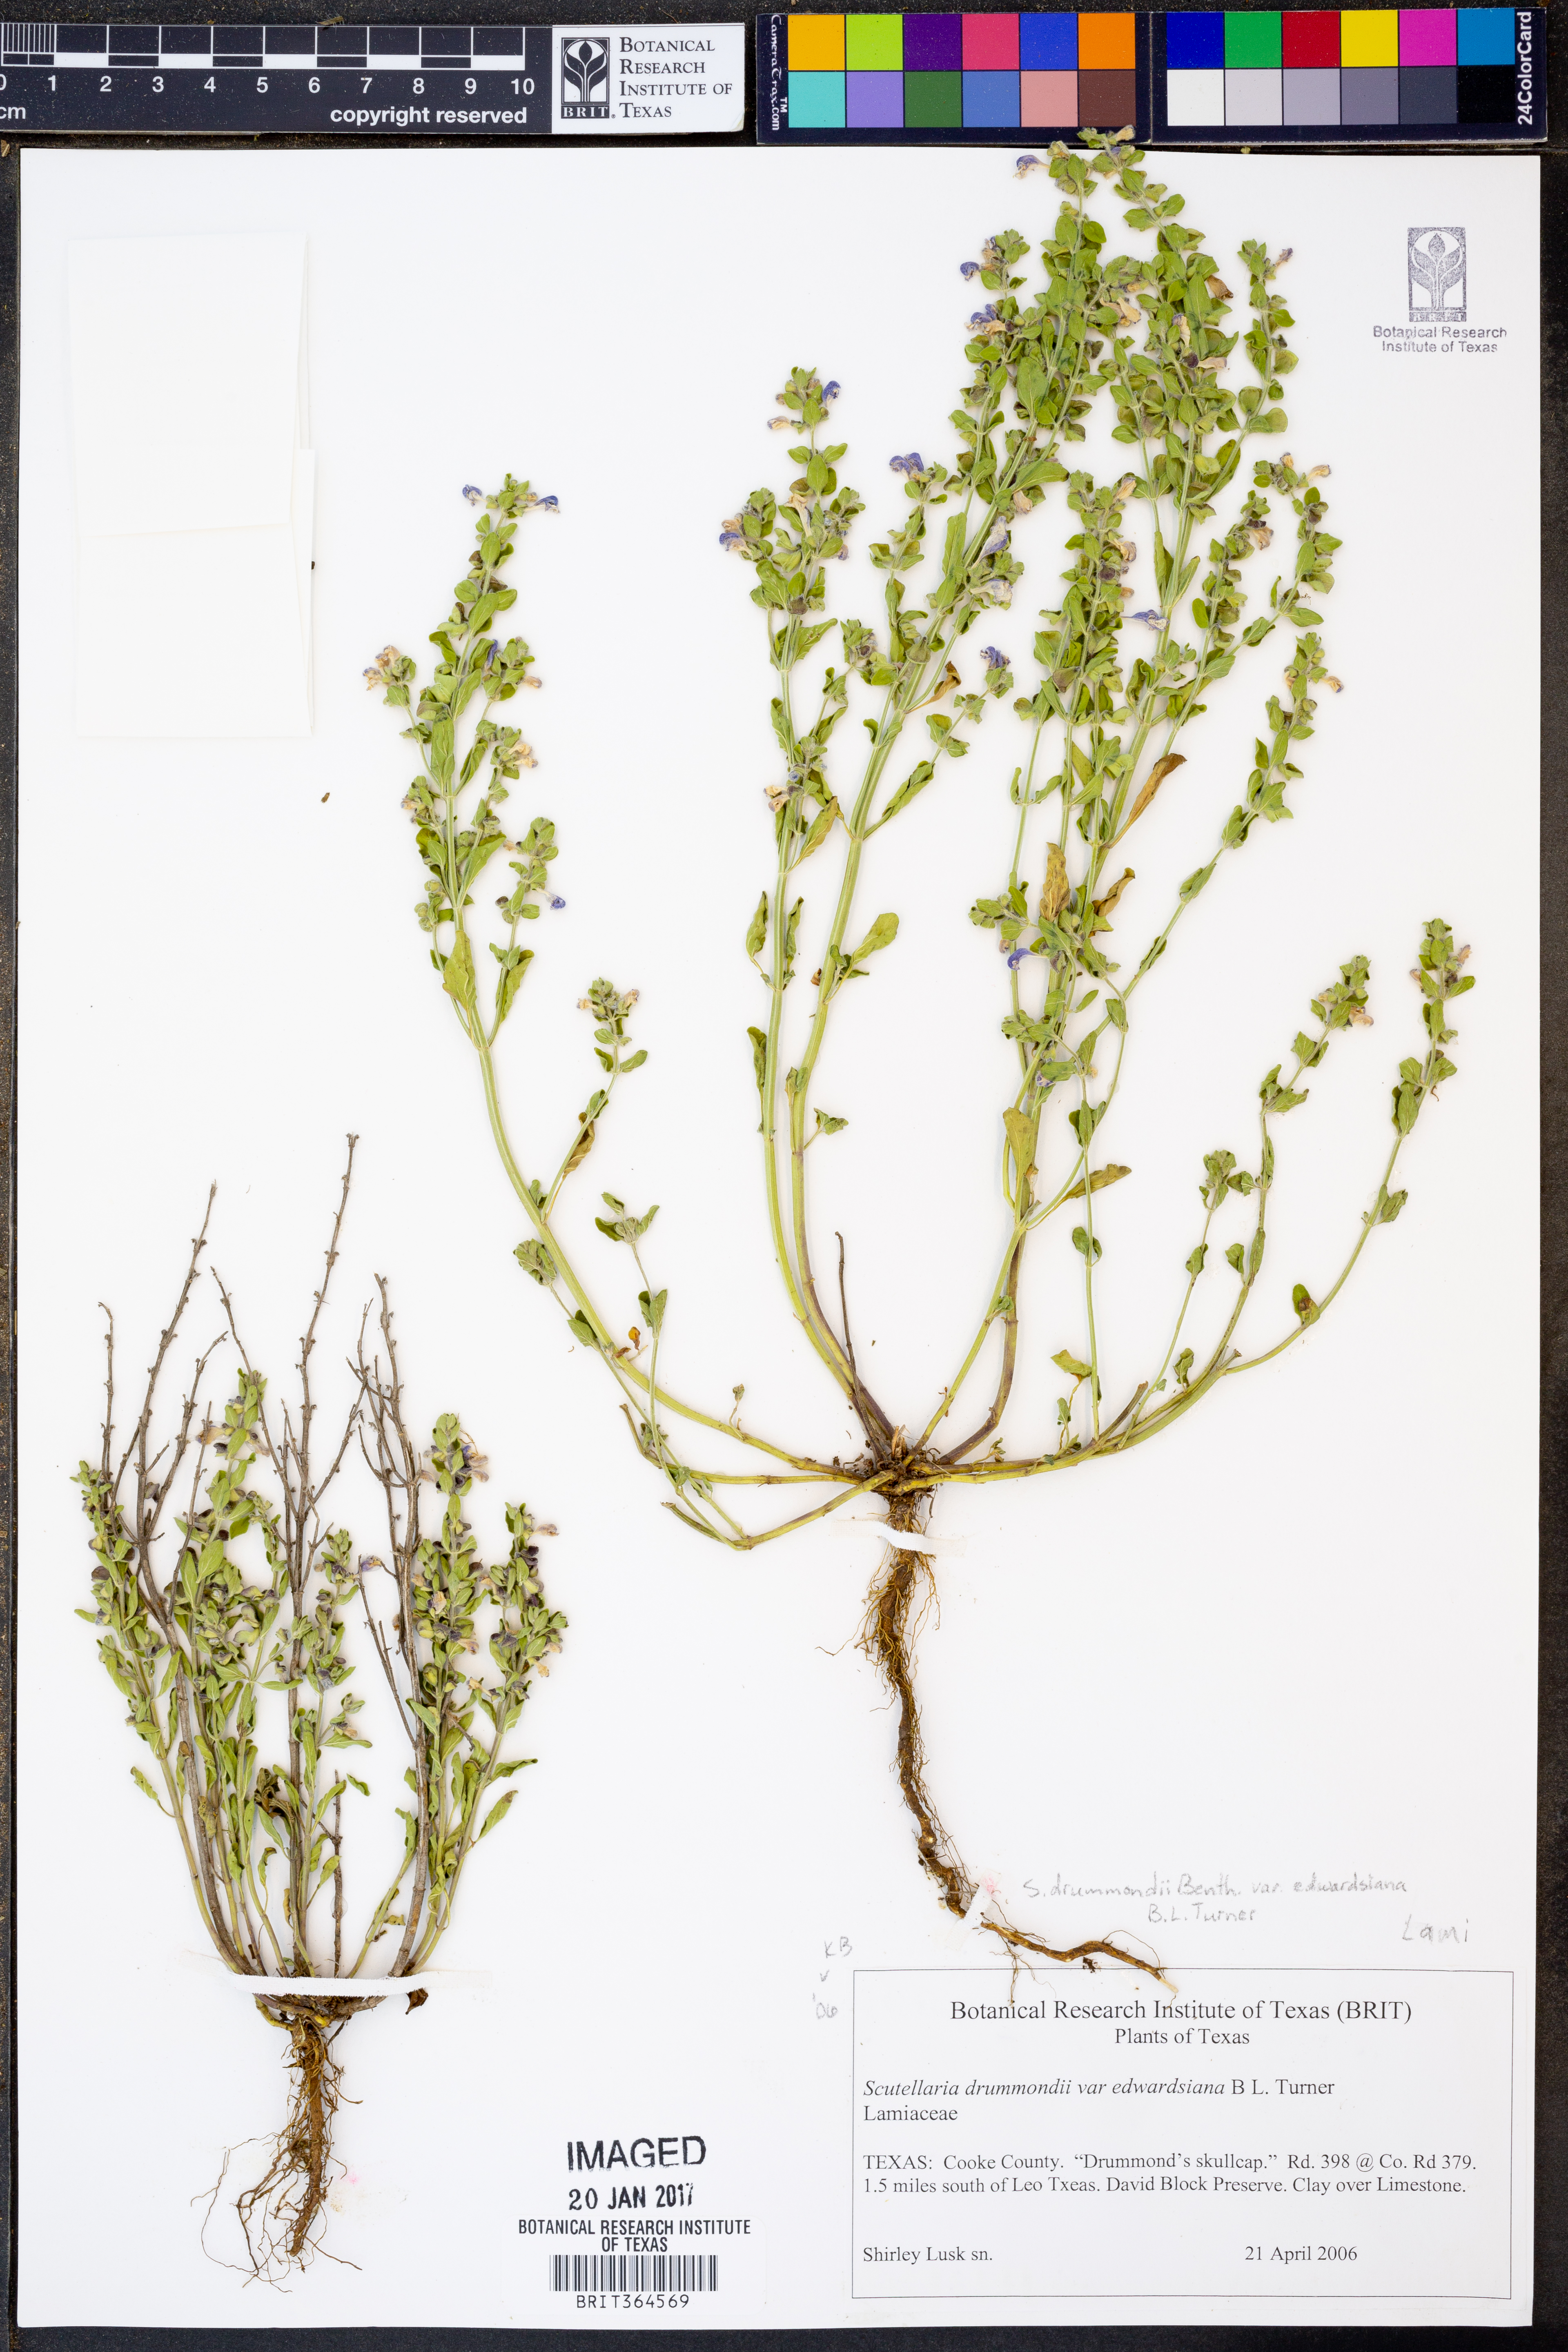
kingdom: Plantae
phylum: Tracheophyta
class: Magnoliopsida
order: Lamiales
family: Lamiaceae
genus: Scutellaria
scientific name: Scutellaria drummondii
